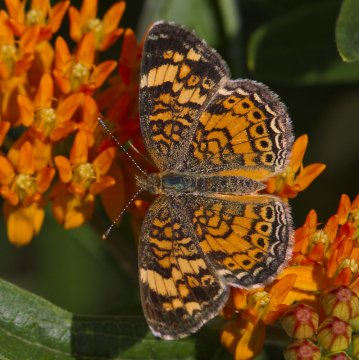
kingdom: Animalia
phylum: Arthropoda
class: Insecta
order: Lepidoptera
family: Nymphalidae
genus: Phyciodes
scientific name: Phyciodes tharos
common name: Pearl Crescent
